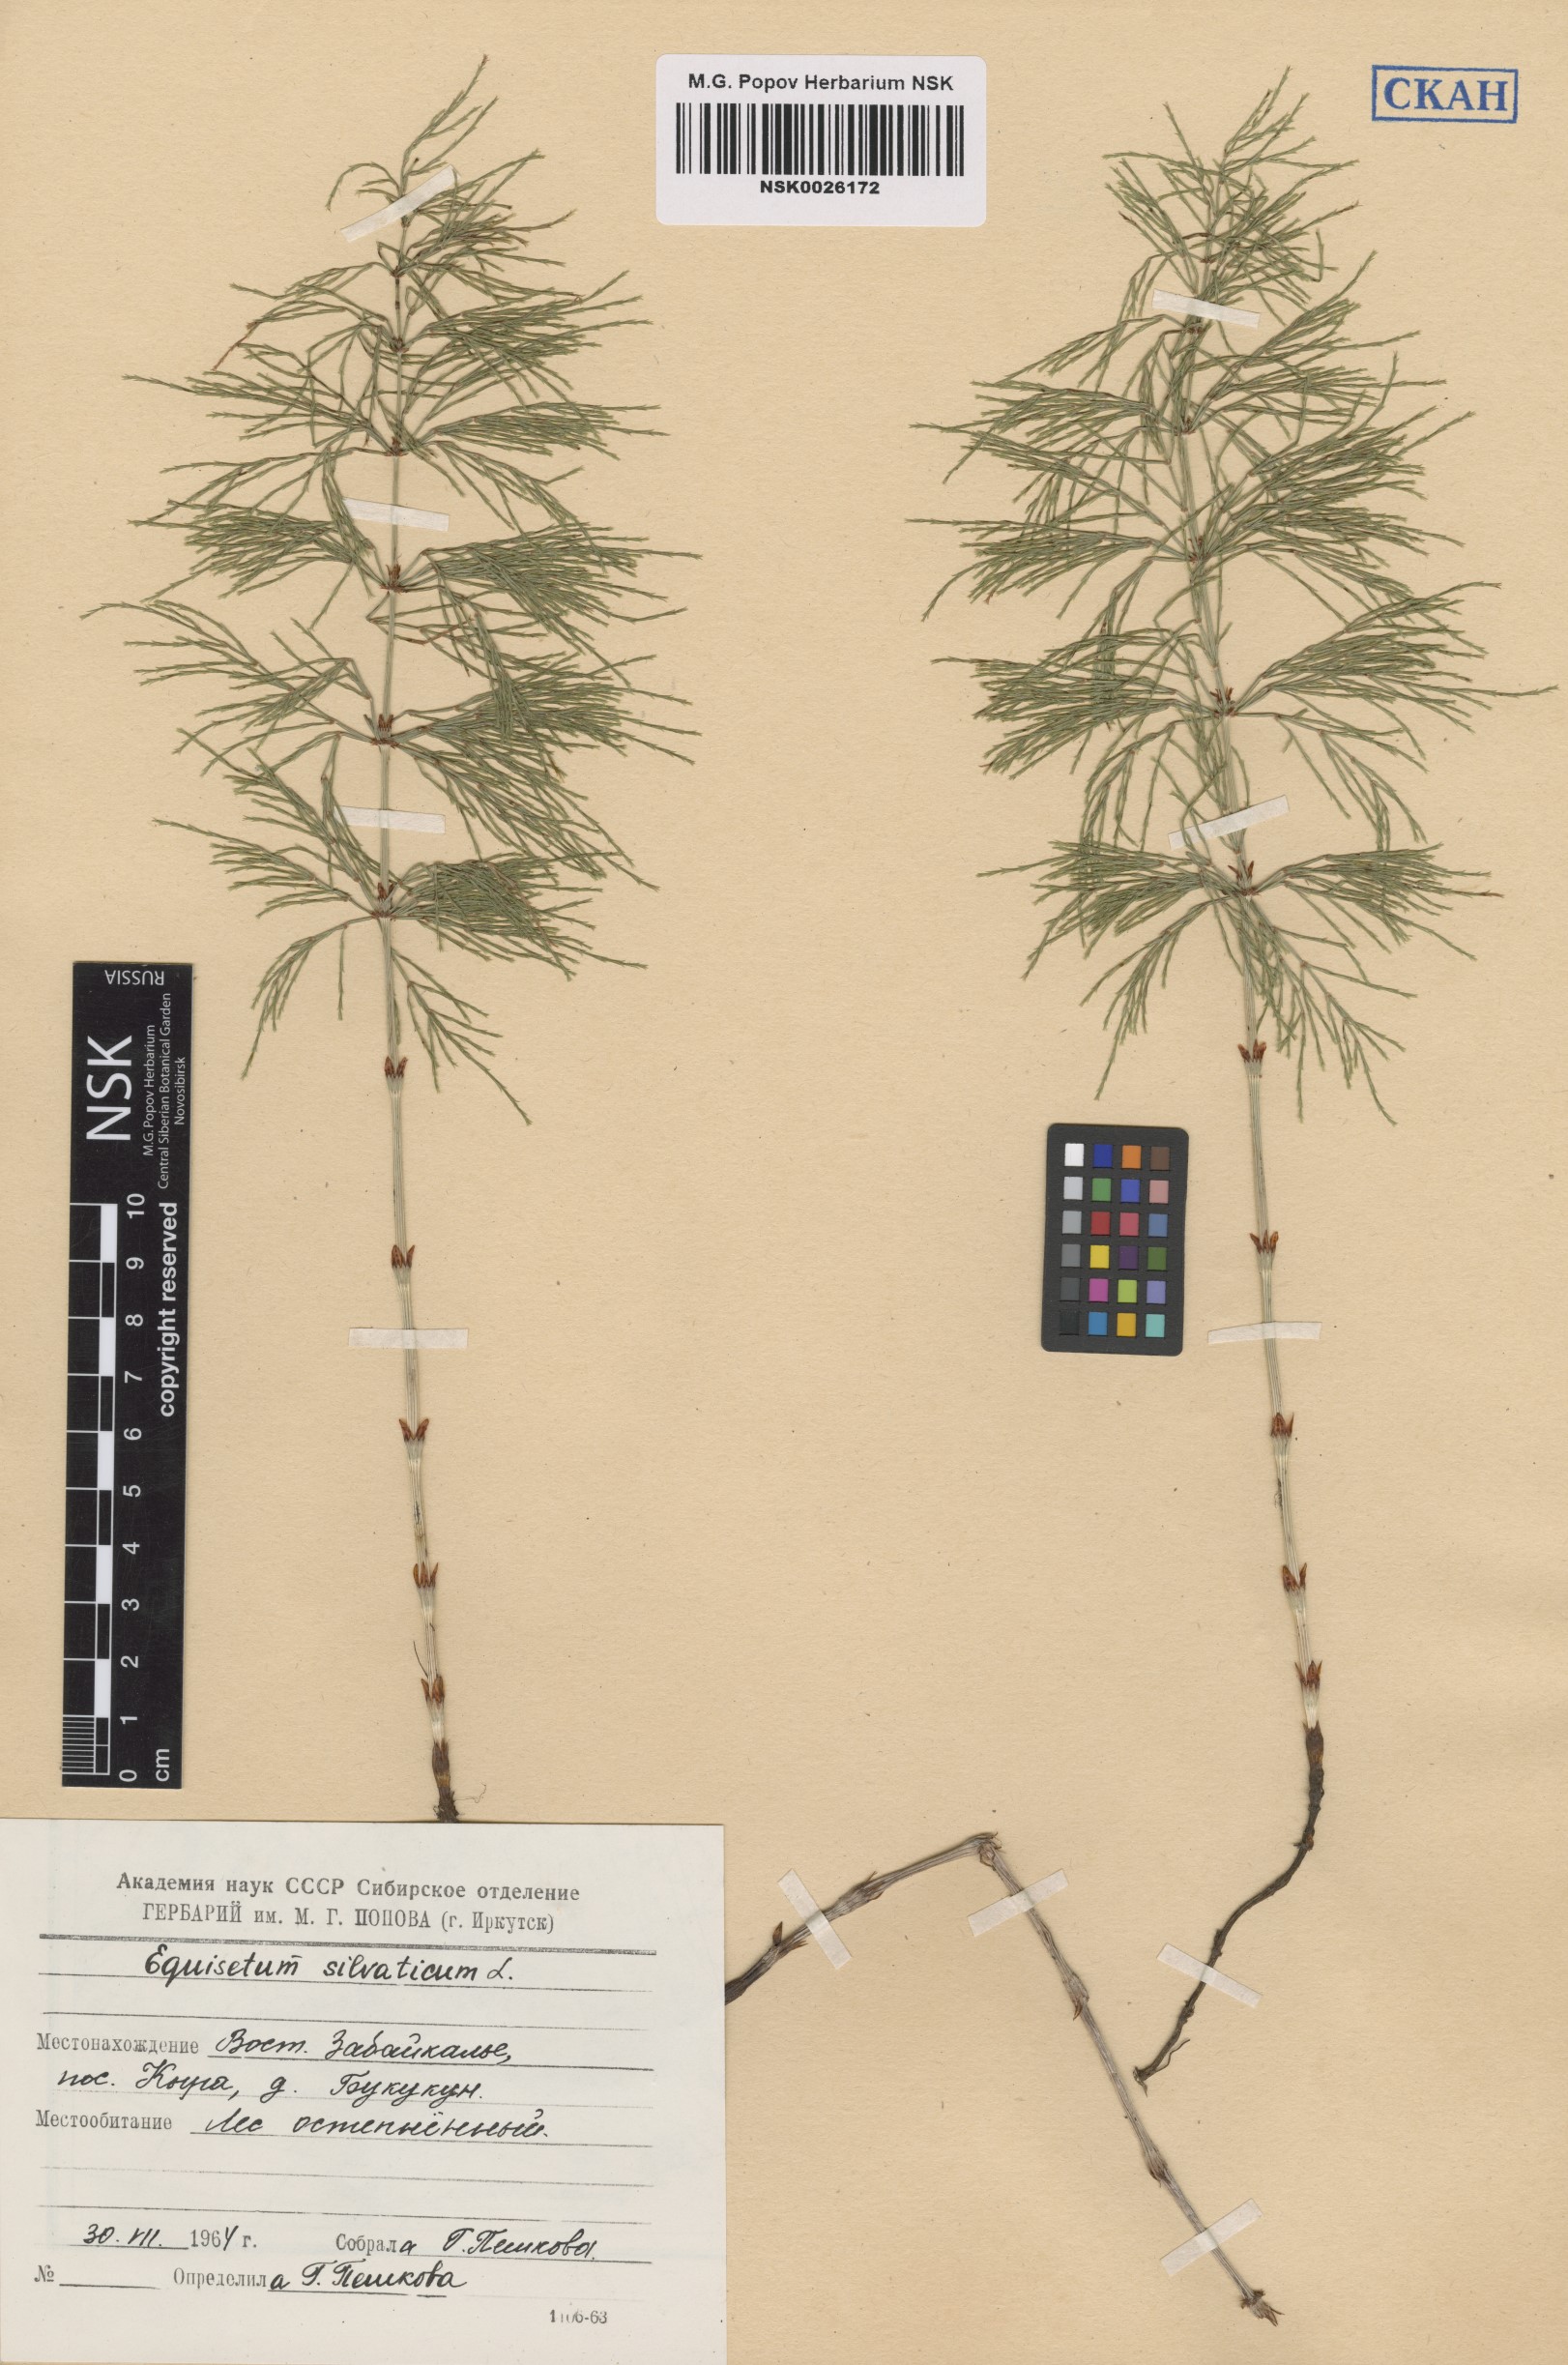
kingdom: Plantae
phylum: Tracheophyta
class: Polypodiopsida
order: Equisetales
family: Equisetaceae
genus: Equisetum
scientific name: Equisetum sylvaticum
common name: Wood horsetail
